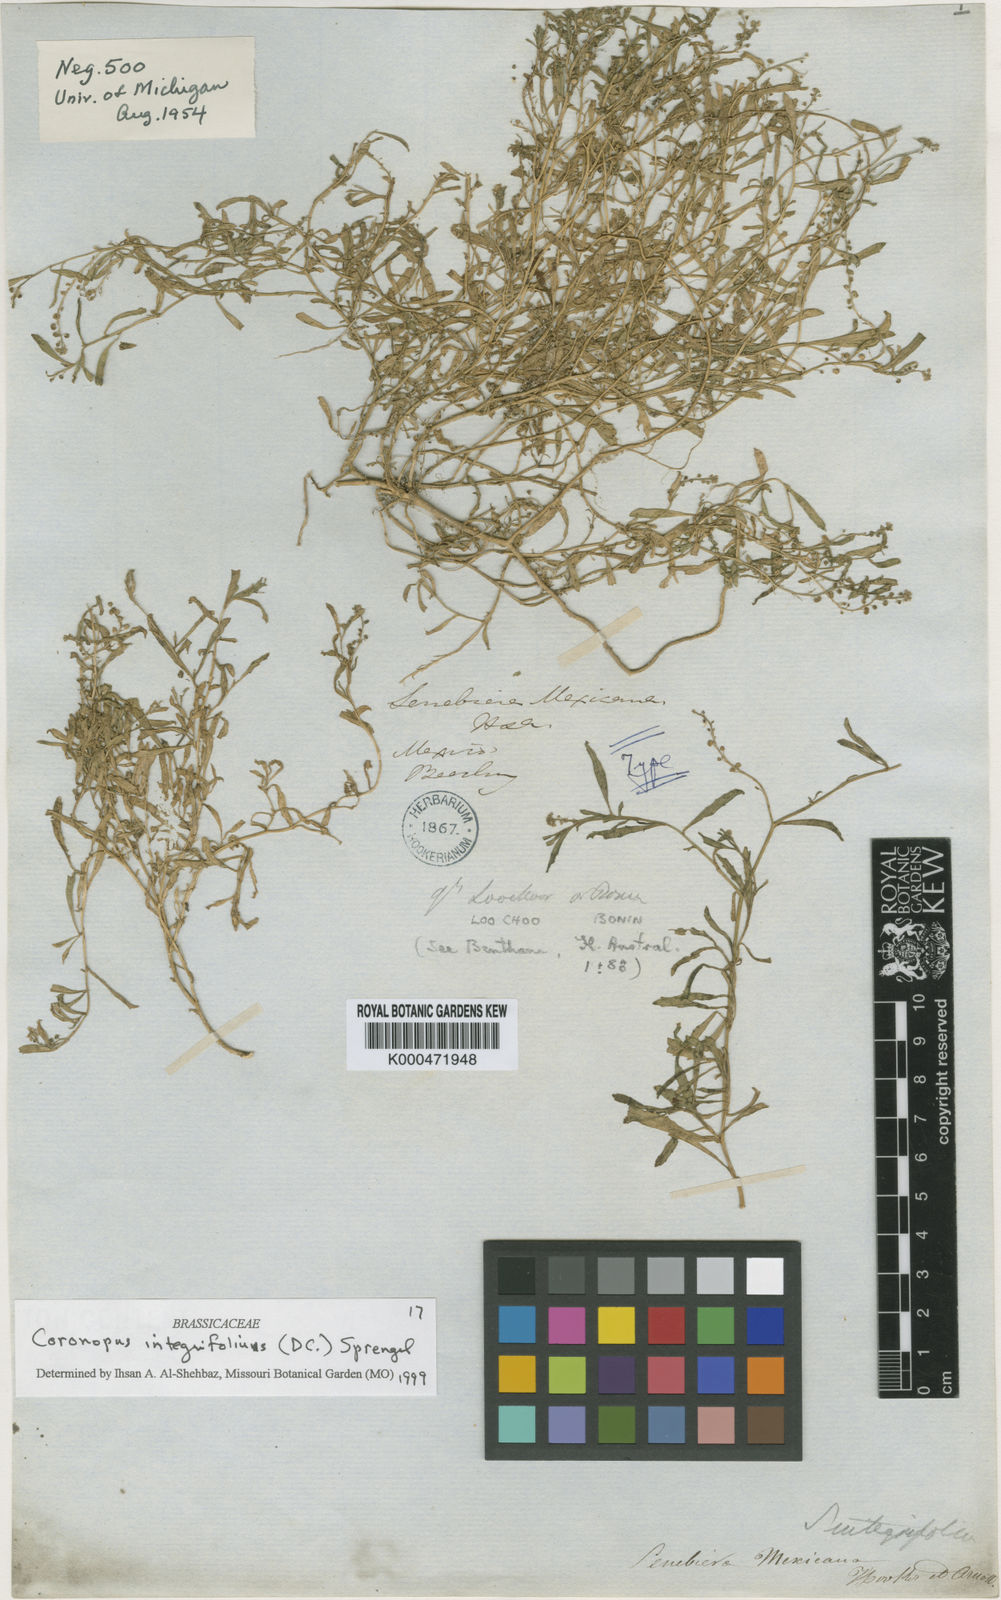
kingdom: Plantae
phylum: Tracheophyta
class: Magnoliopsida
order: Brassicales
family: Brassicaceae
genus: Lepidium
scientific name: Lepidium englerianum
